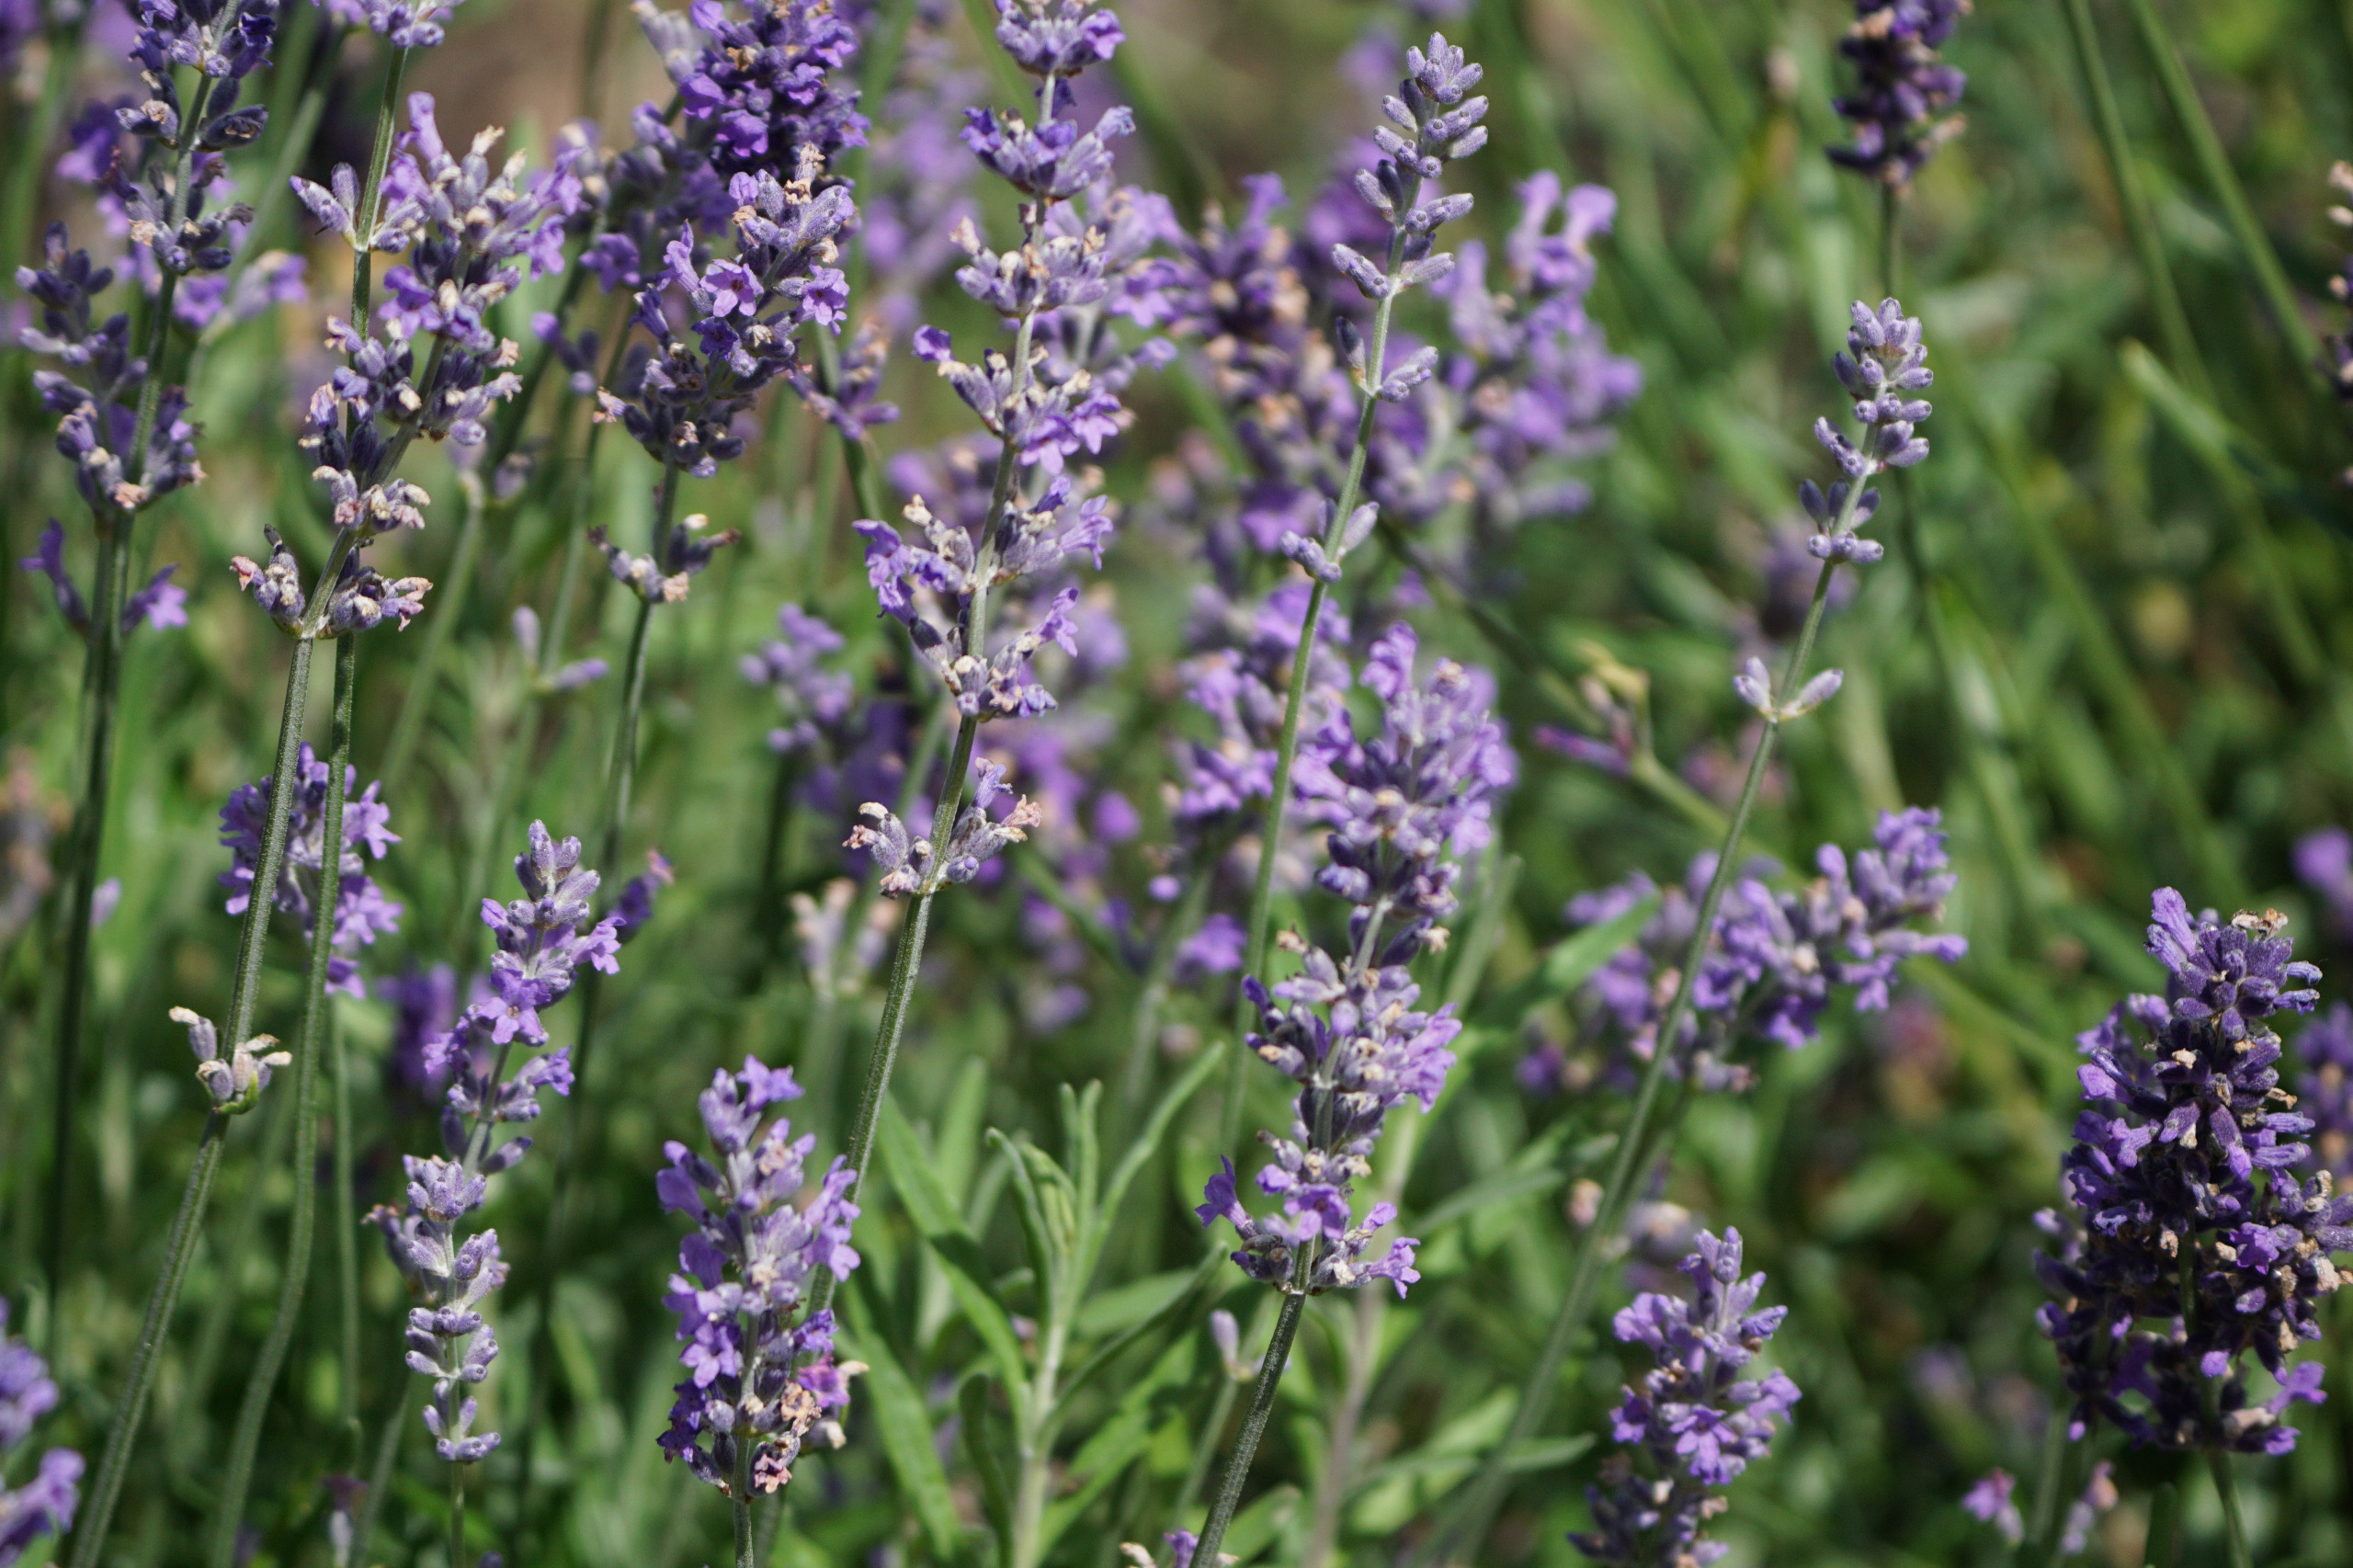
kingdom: Plantae
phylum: Tracheophyta
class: Magnoliopsida
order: Lamiales
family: Lamiaceae
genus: Lavandula
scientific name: Lavandula angustifolia
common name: Ægte lavendel
